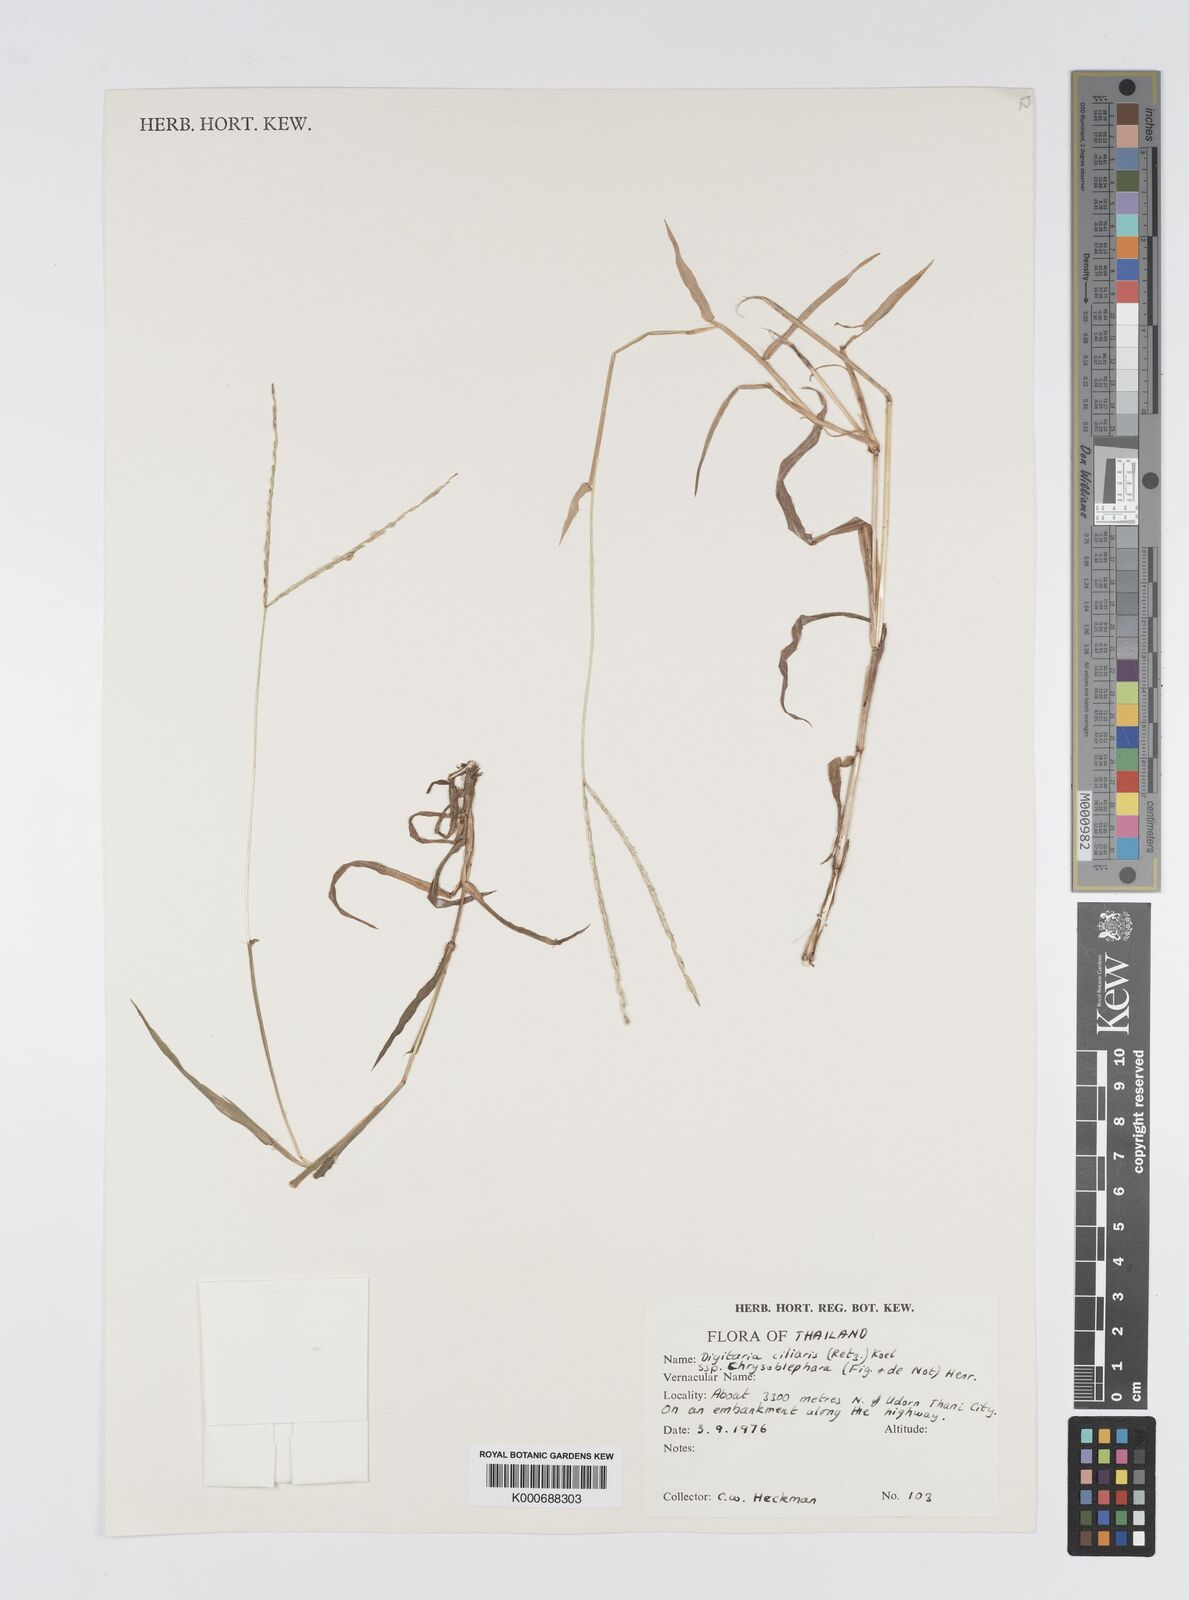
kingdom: Plantae
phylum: Tracheophyta
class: Liliopsida
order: Poales
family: Poaceae
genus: Digitaria
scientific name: Digitaria bicornis
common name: Asian crabgrass
